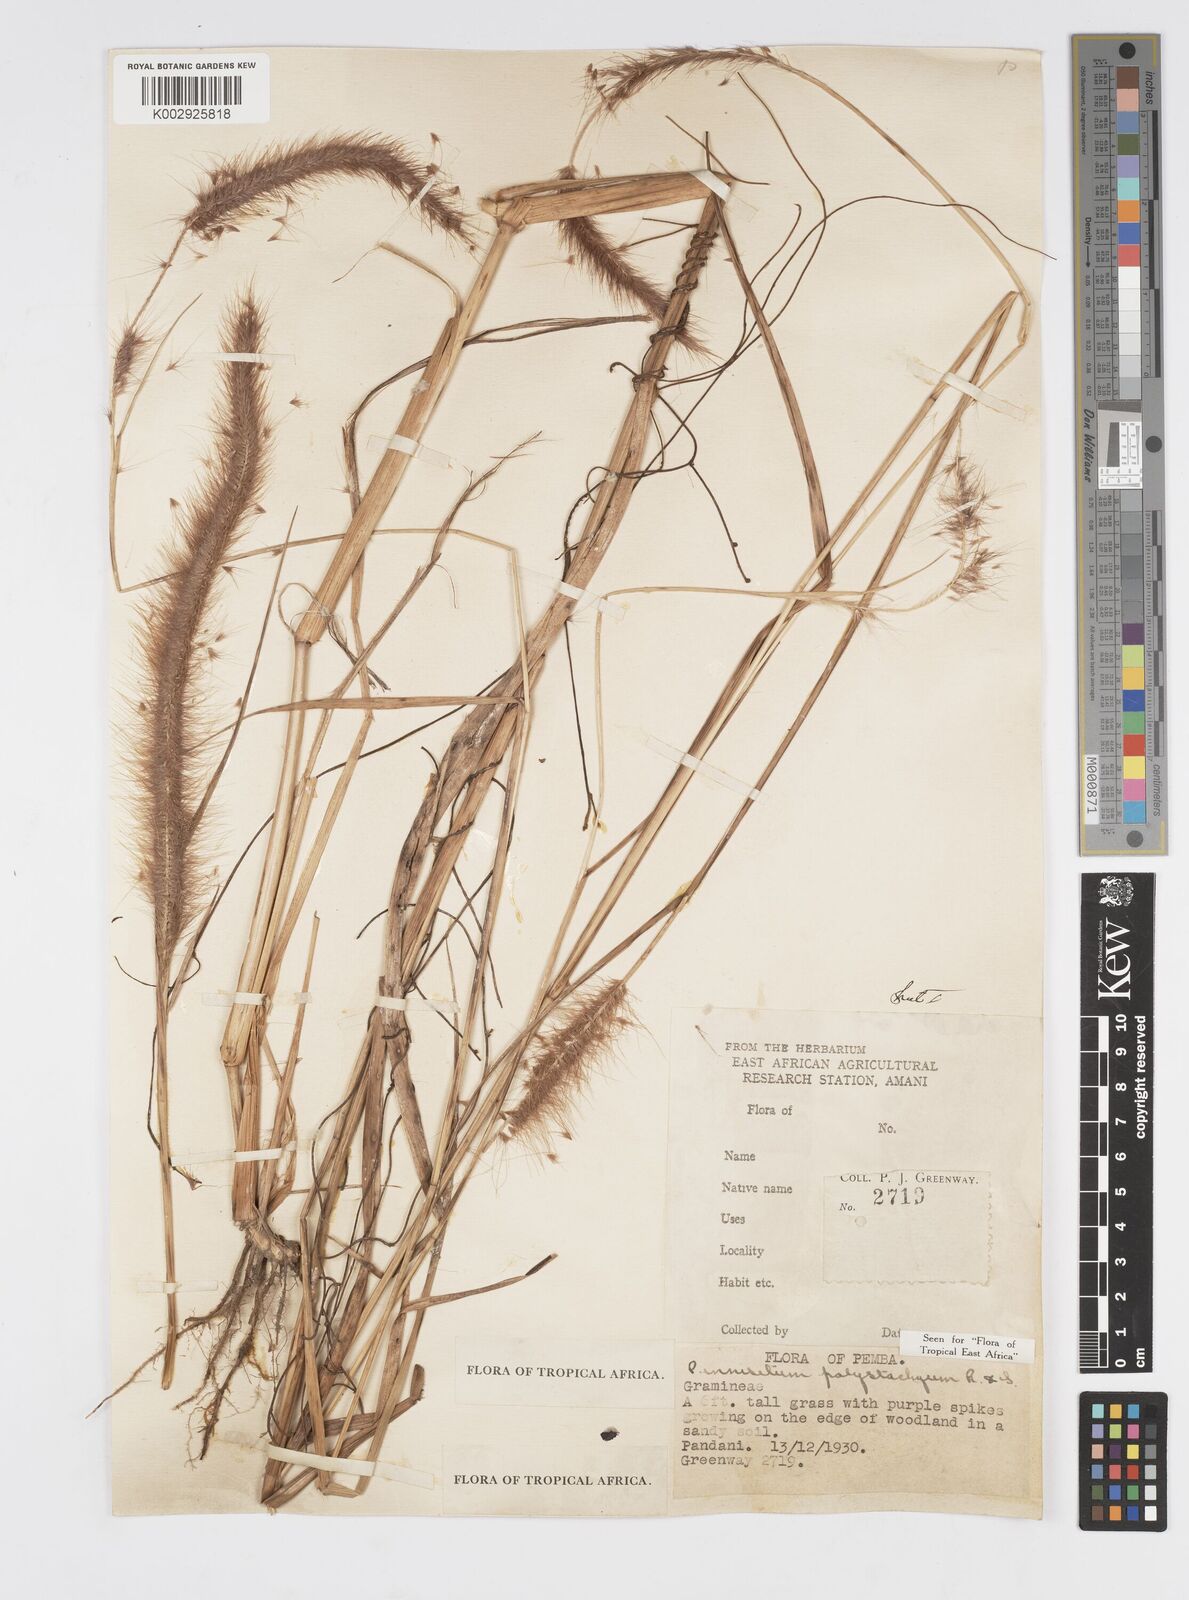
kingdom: Plantae
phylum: Tracheophyta
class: Liliopsida
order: Poales
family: Poaceae
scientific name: Poaceae
